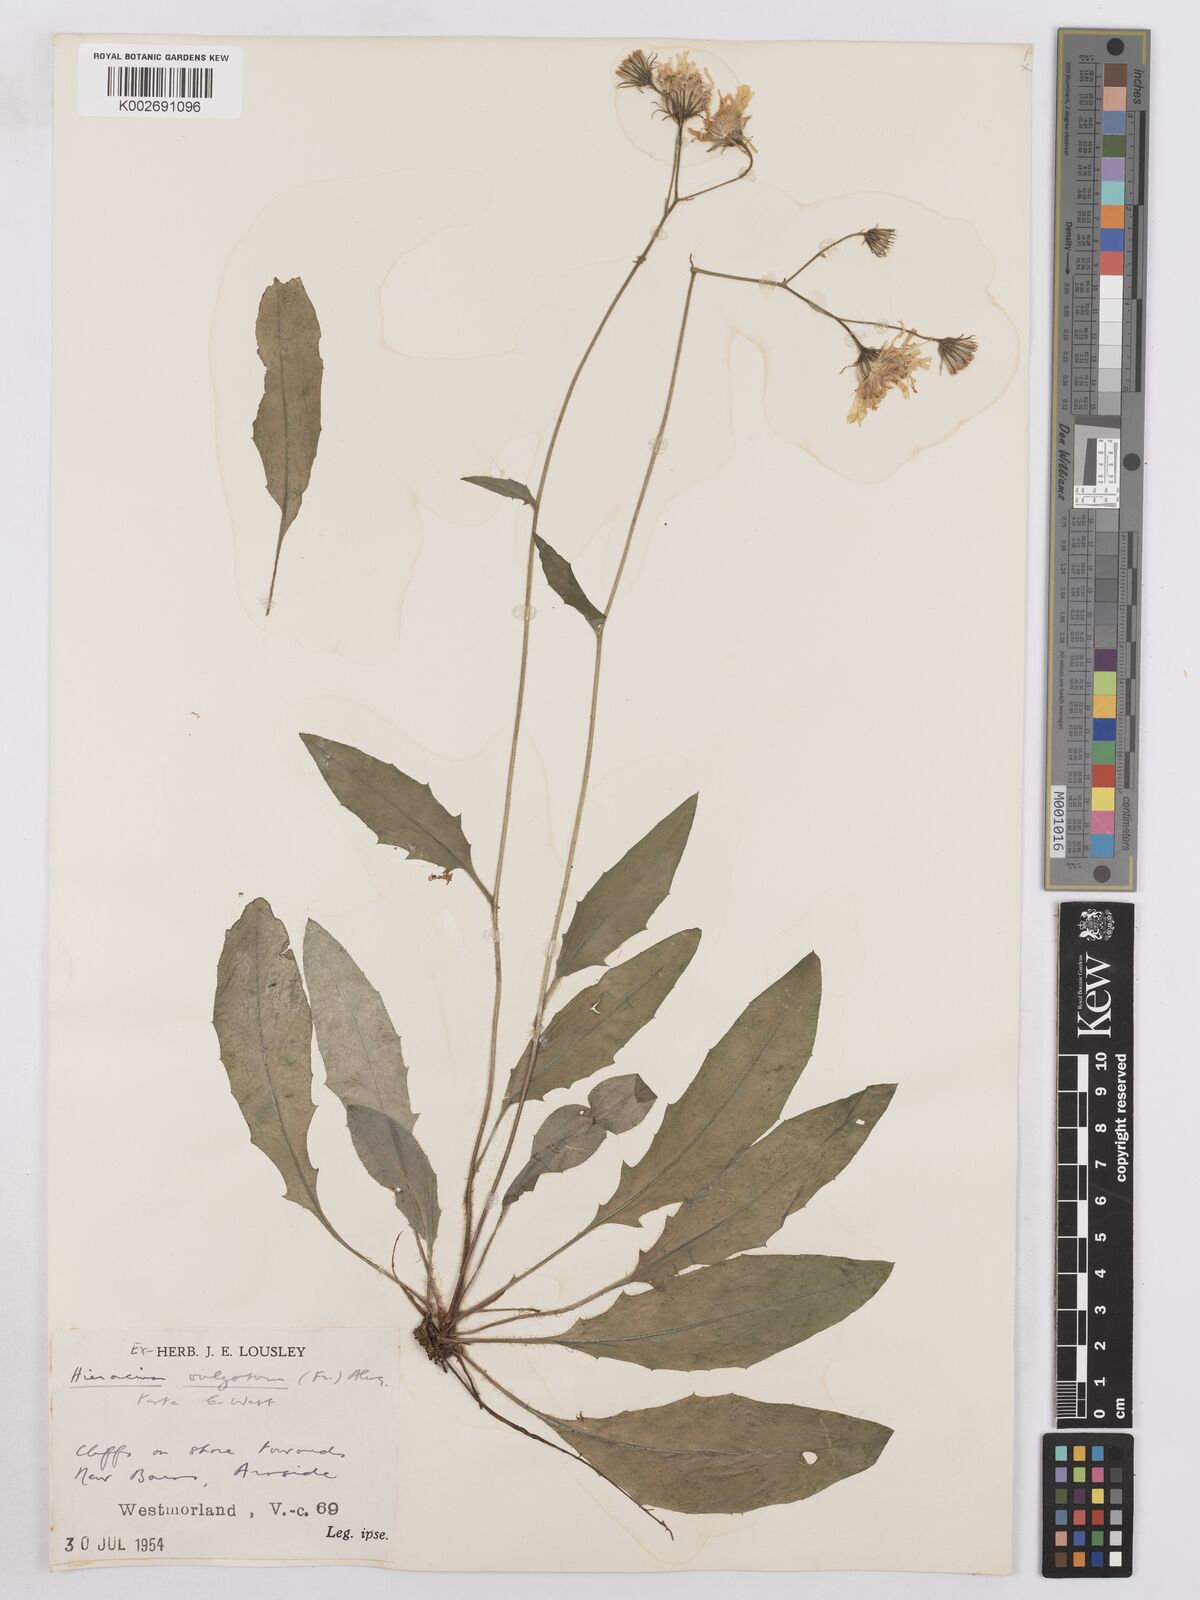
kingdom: Plantae
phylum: Tracheophyta
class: Magnoliopsida
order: Asterales
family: Asteraceae
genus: Hieracium
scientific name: Hieracium lachenalii
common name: Common hawkweed
